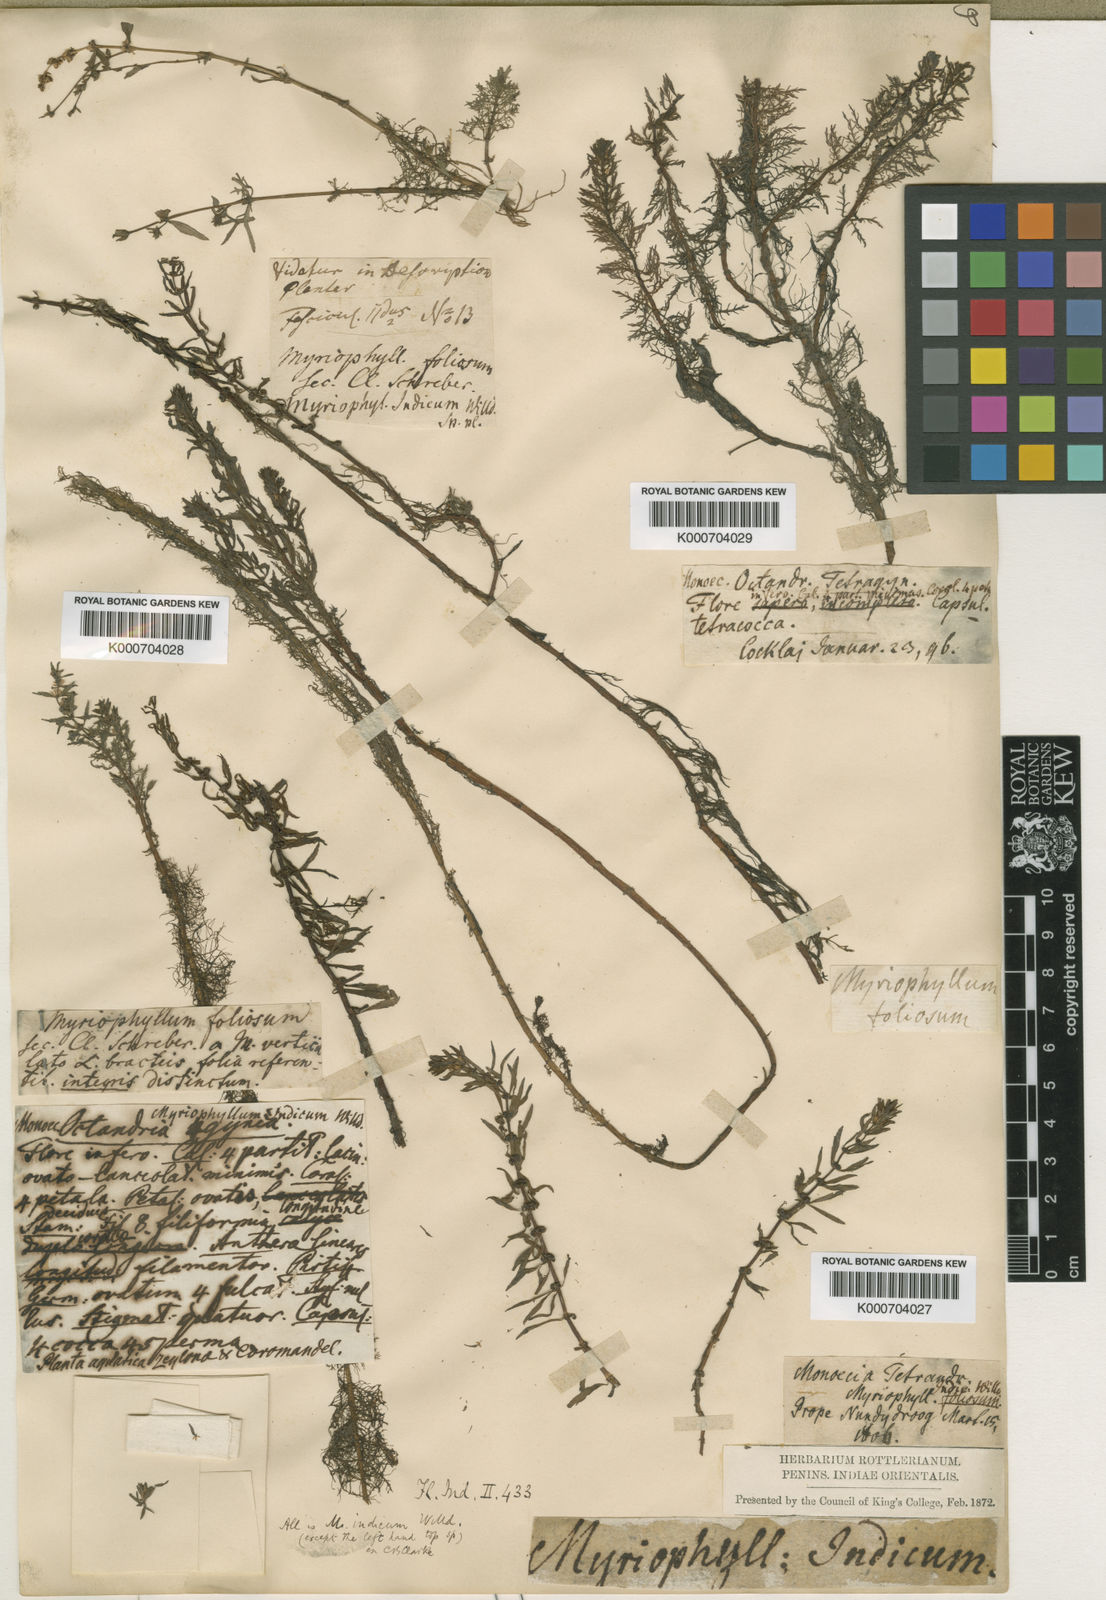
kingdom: Plantae
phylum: Tracheophyta
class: Magnoliopsida
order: Saxifragales
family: Haloragaceae
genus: Myriophyllum
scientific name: Myriophyllum indicum
